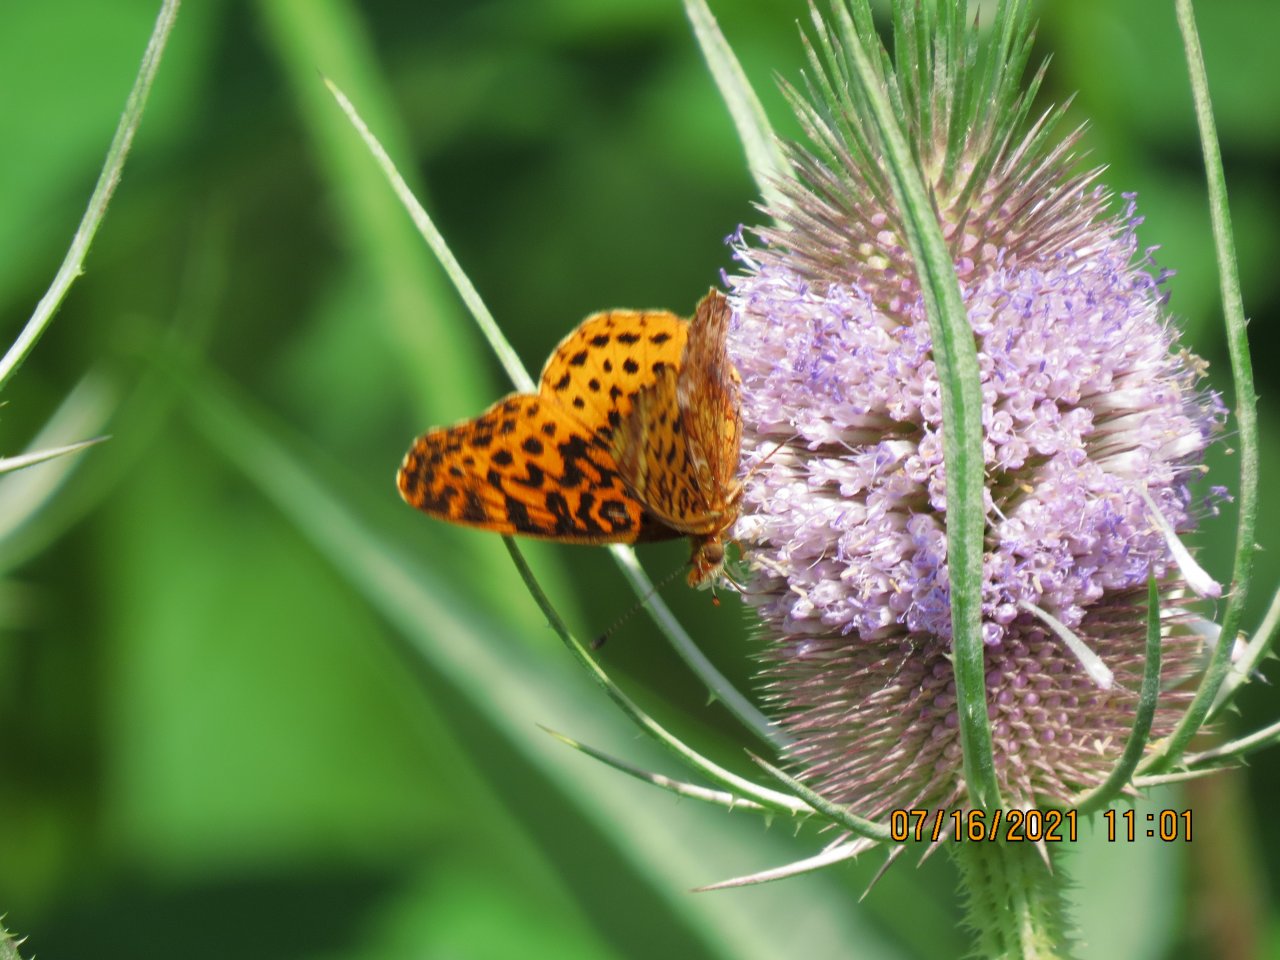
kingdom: Animalia
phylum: Arthropoda
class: Insecta
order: Lepidoptera
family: Nymphalidae
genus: Clossiana
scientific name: Clossiana toddi
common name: Meadow Fritillary
